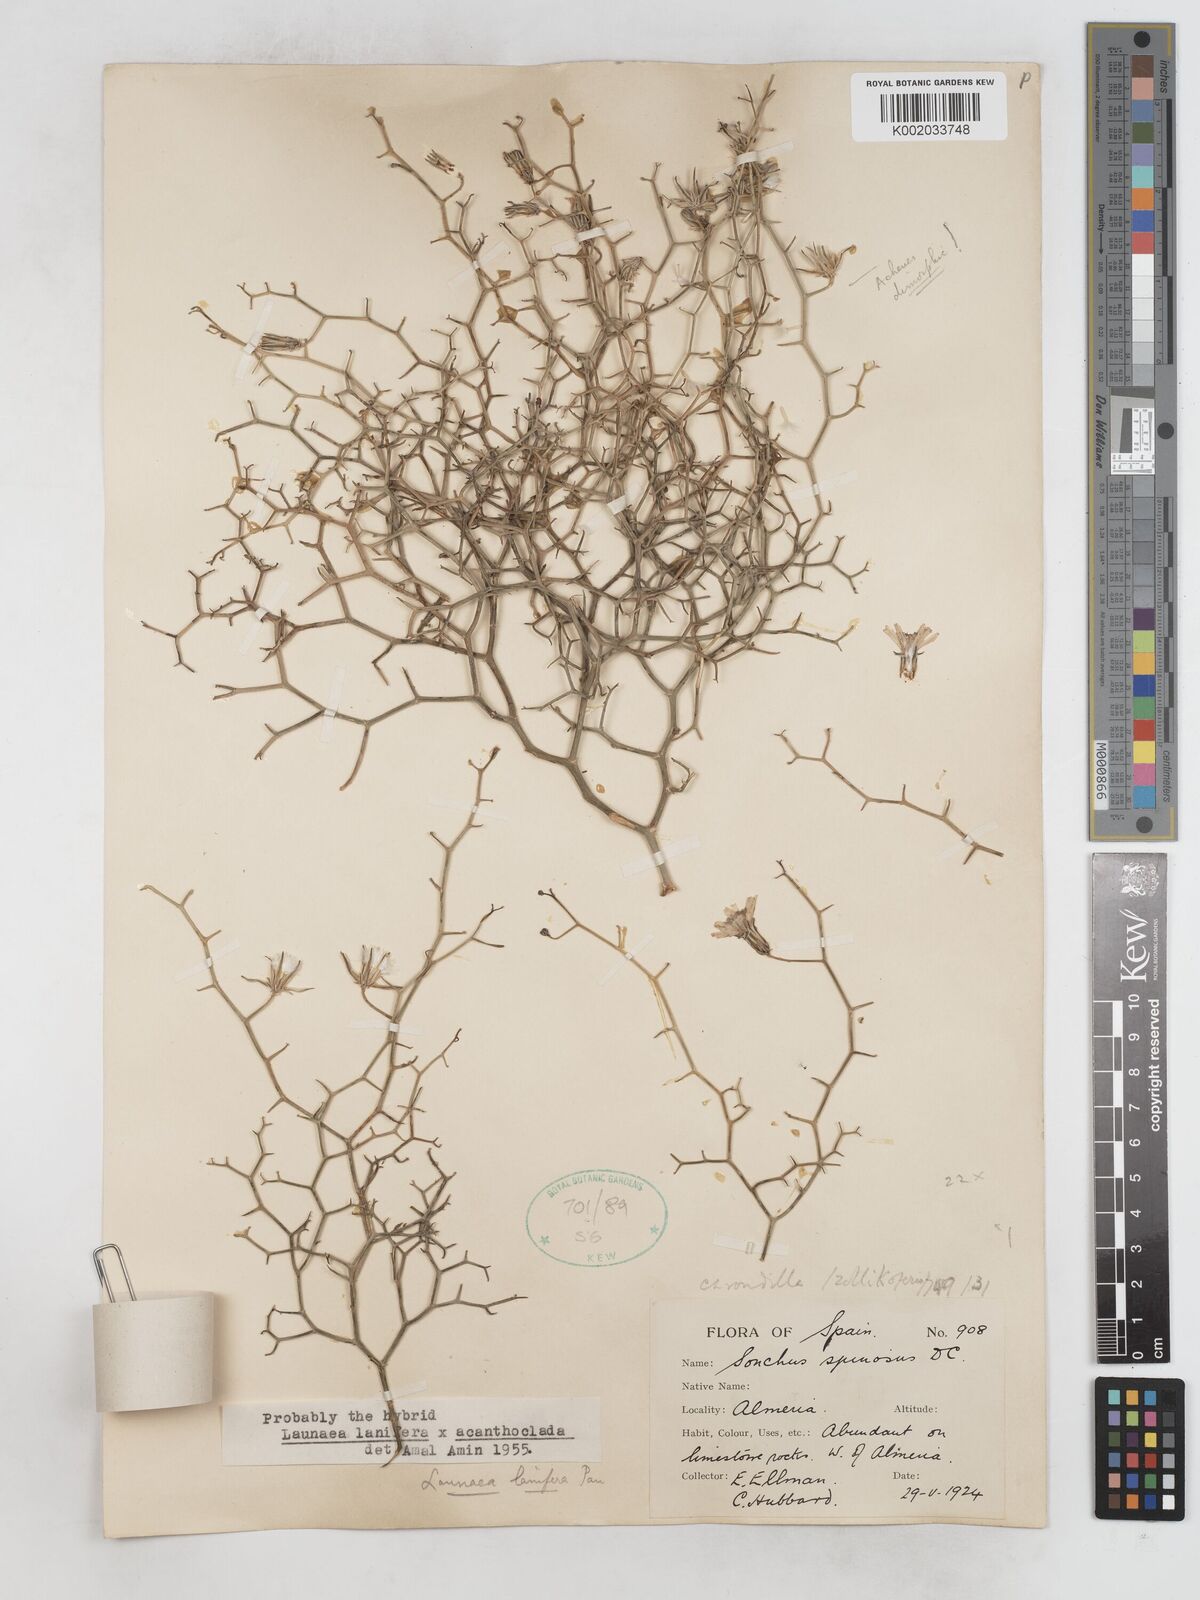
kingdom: Plantae
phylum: Tracheophyta
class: Magnoliopsida
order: Asterales
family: Asteraceae
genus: Launaea
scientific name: Launaea lanifera
